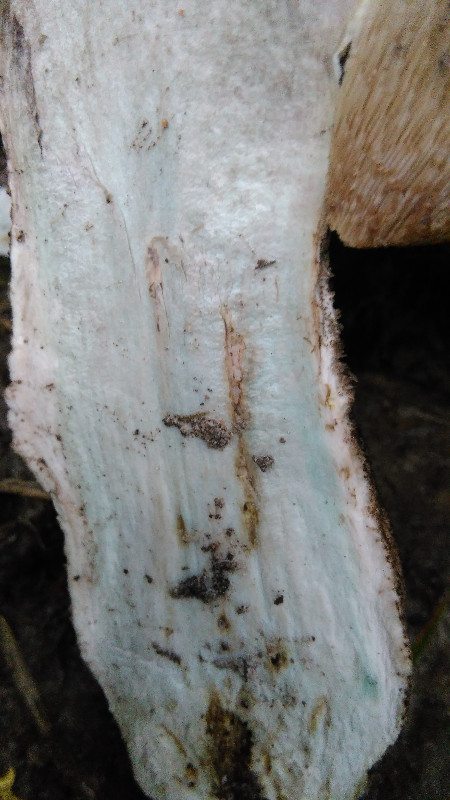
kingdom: Fungi
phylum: Basidiomycota
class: Agaricomycetes
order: Boletales
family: Boletaceae
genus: Leccinum
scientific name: Leccinum
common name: skælrørhat
